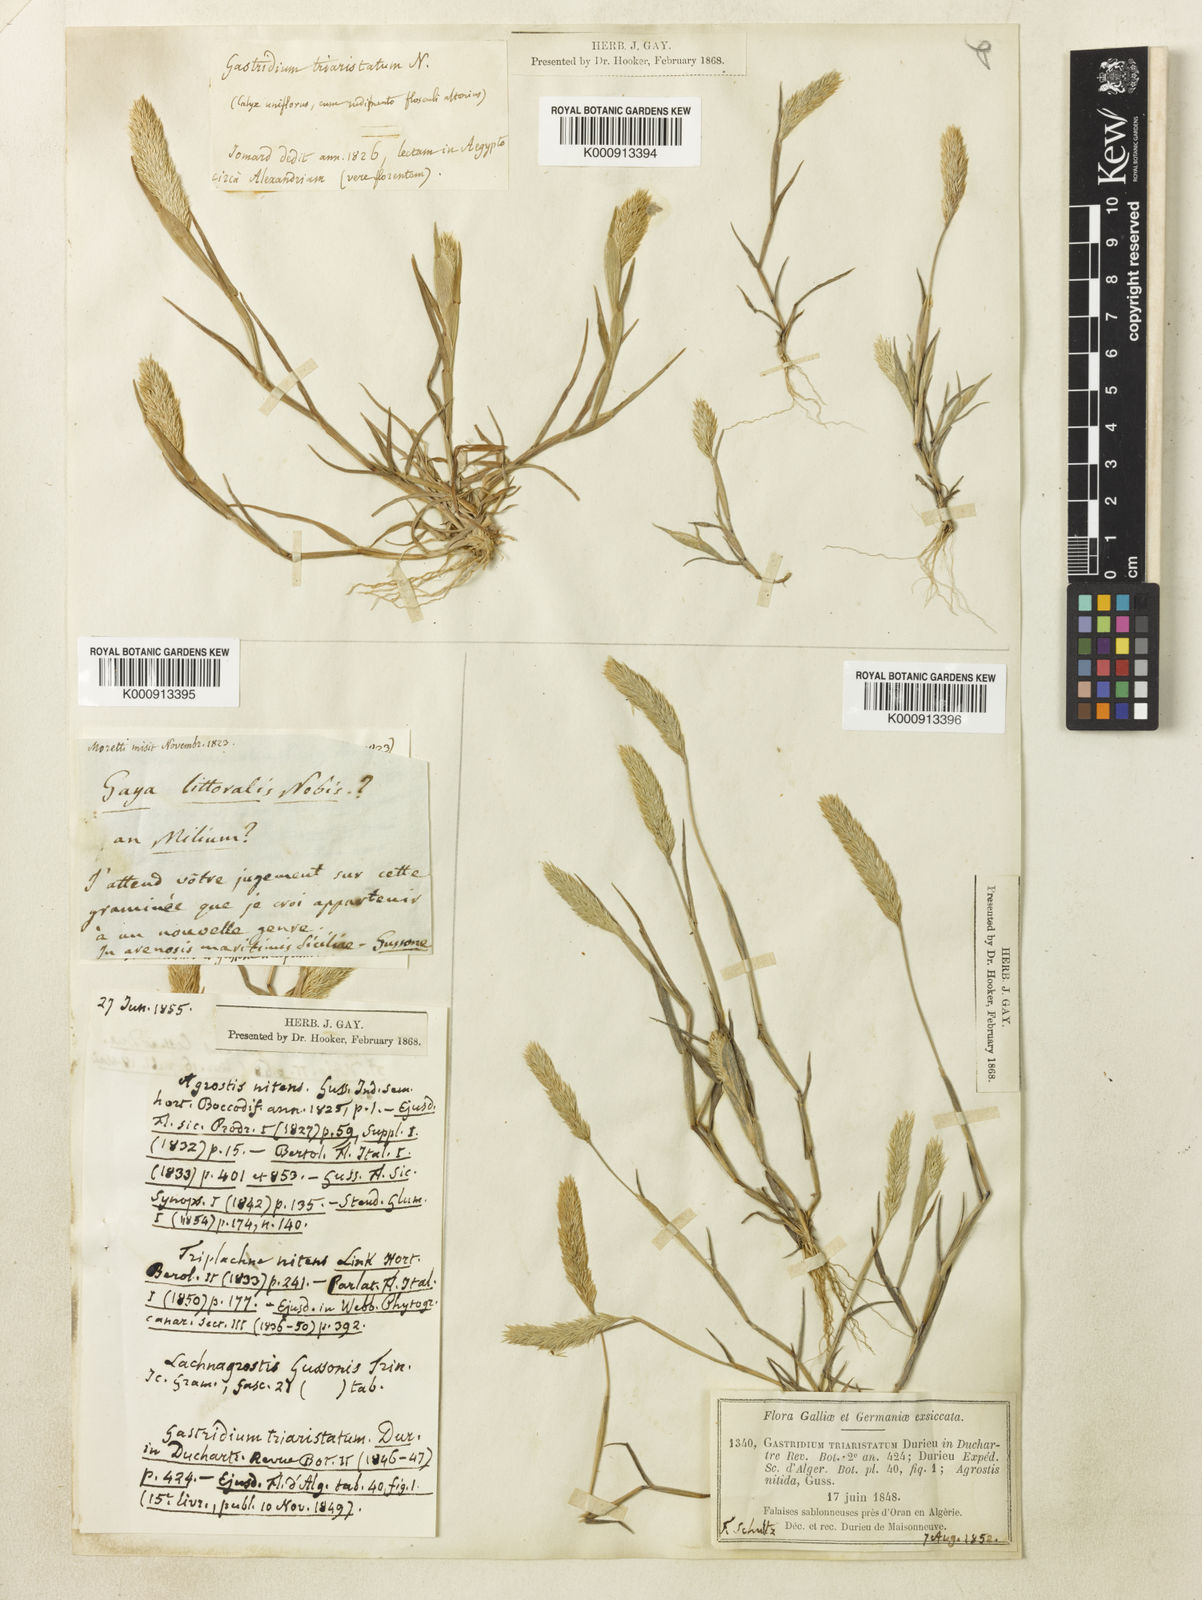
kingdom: Plantae
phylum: Tracheophyta
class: Liliopsida
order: Poales
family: Poaceae
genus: Triplachne
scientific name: Triplachne nitens
